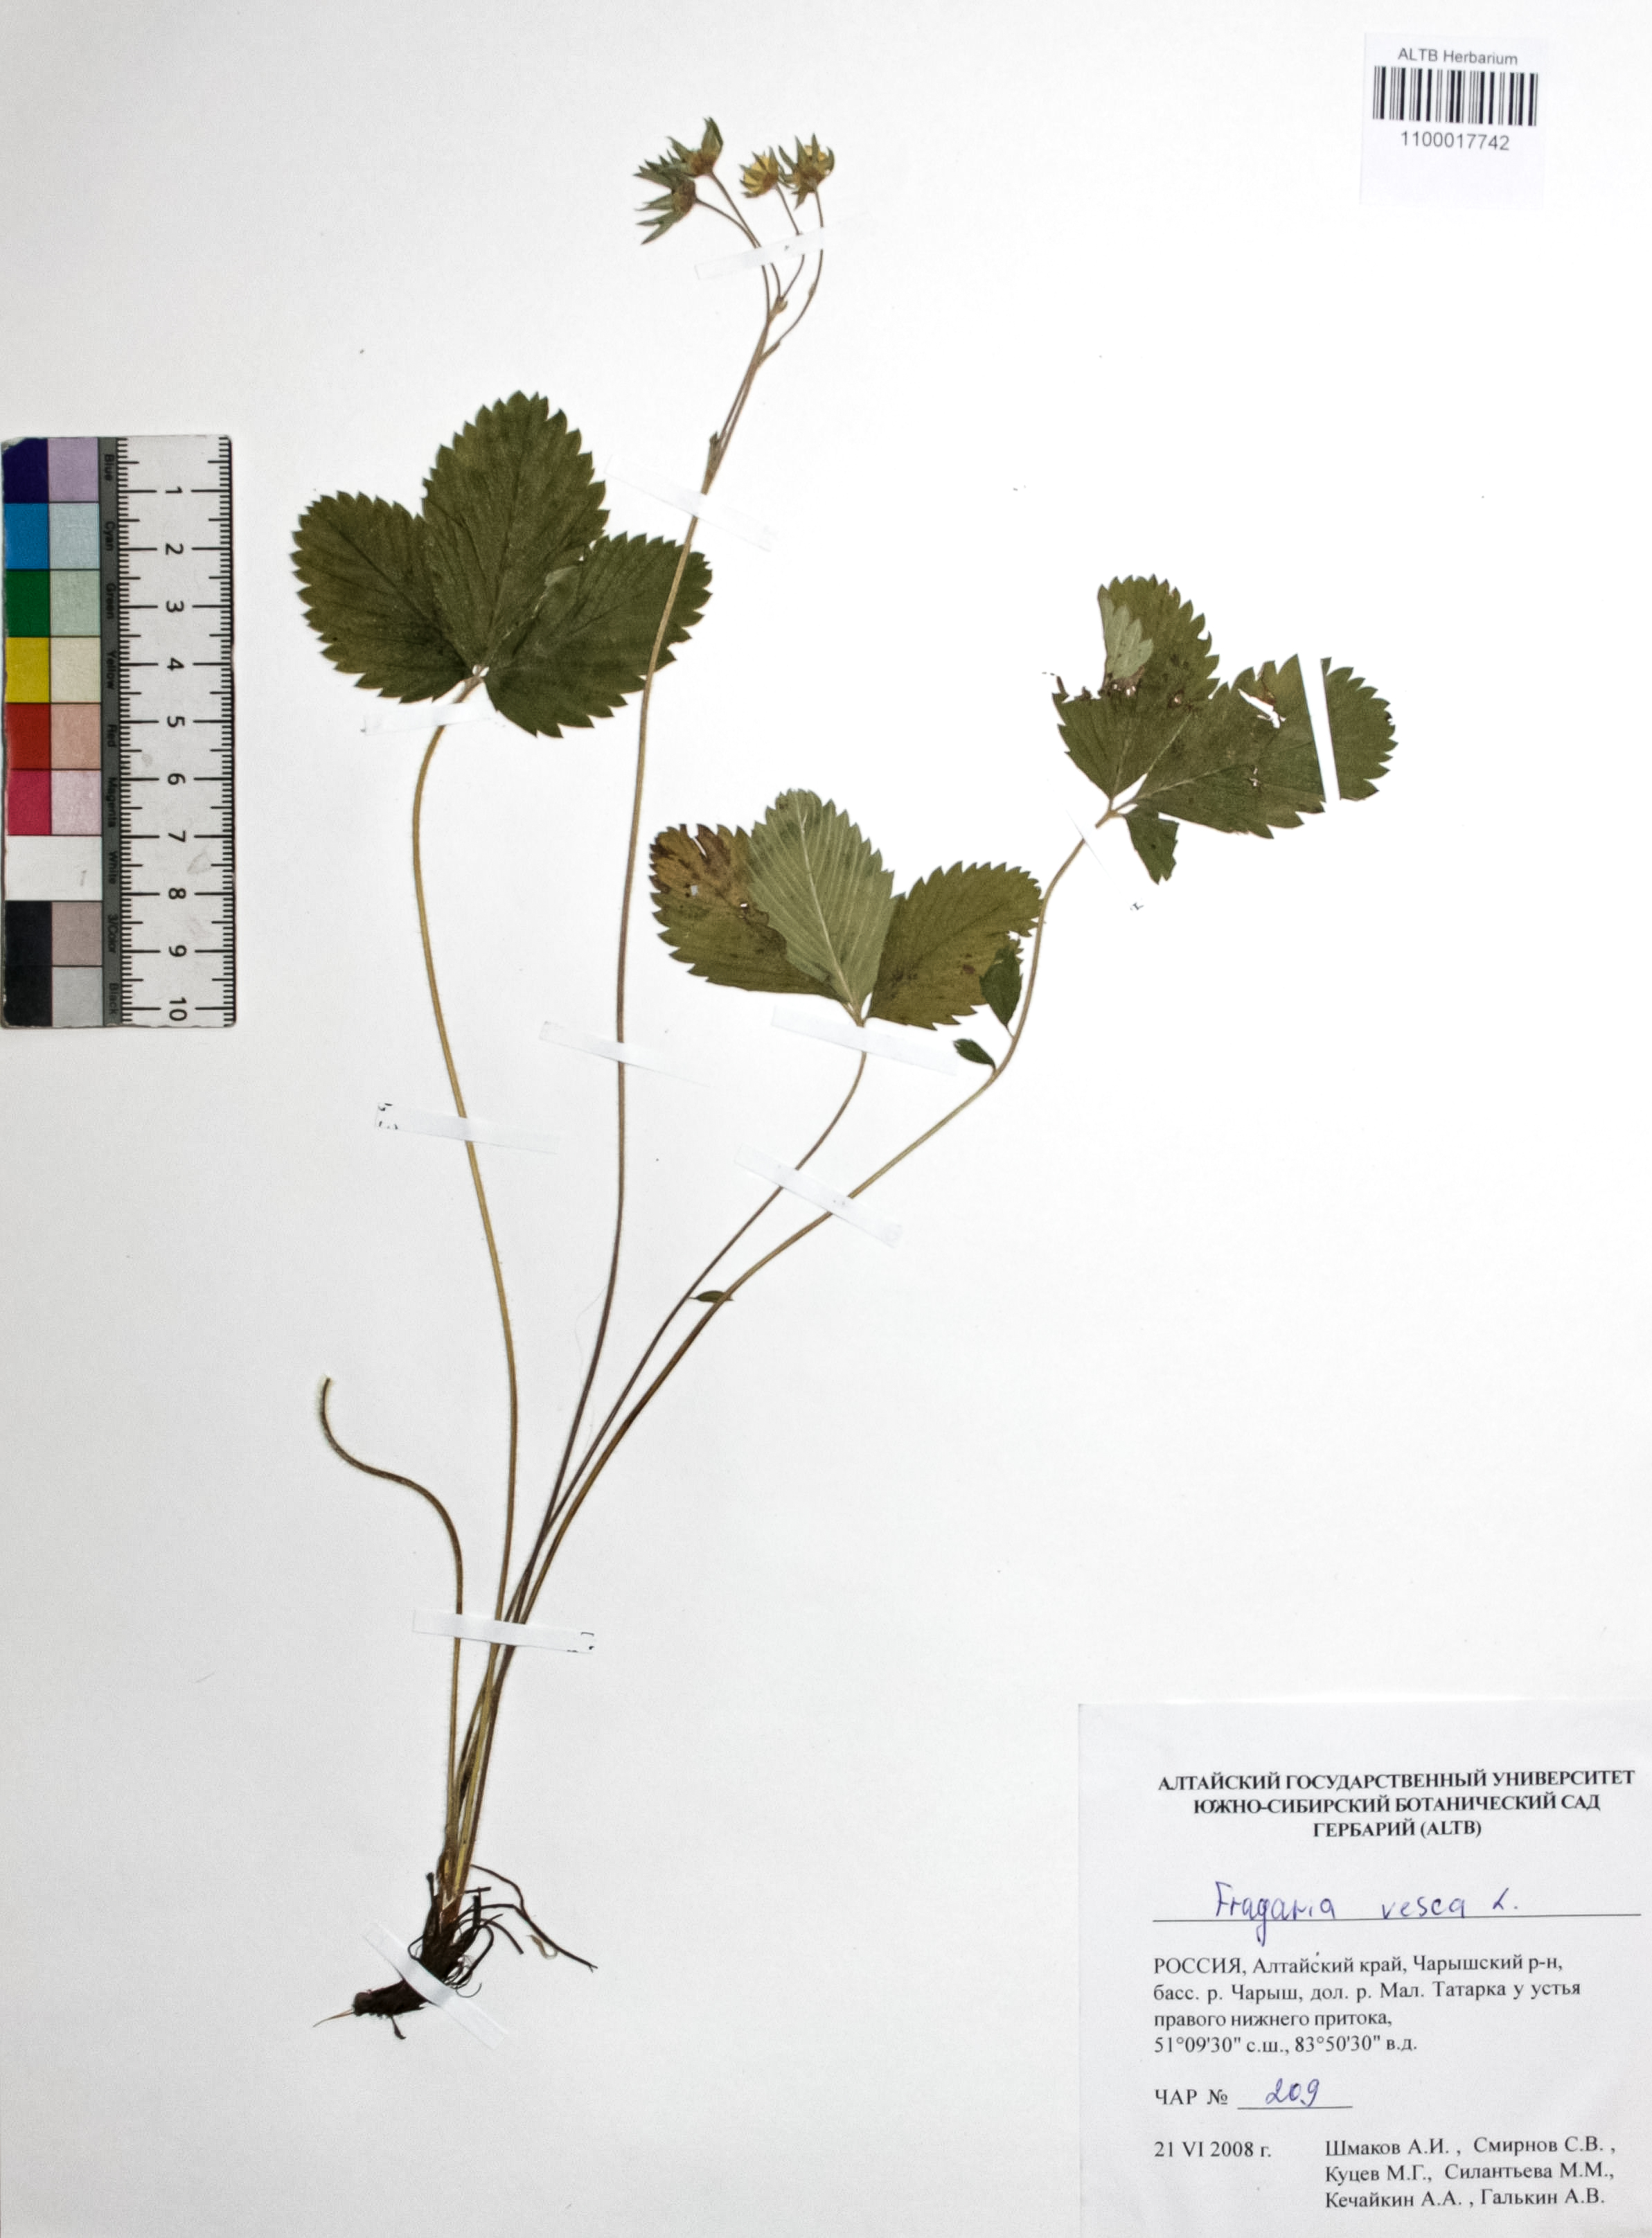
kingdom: Plantae
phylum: Tracheophyta
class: Magnoliopsida
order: Rosales
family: Rosaceae
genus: Fragaria
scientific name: Fragaria vesca
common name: Wild strawberry
